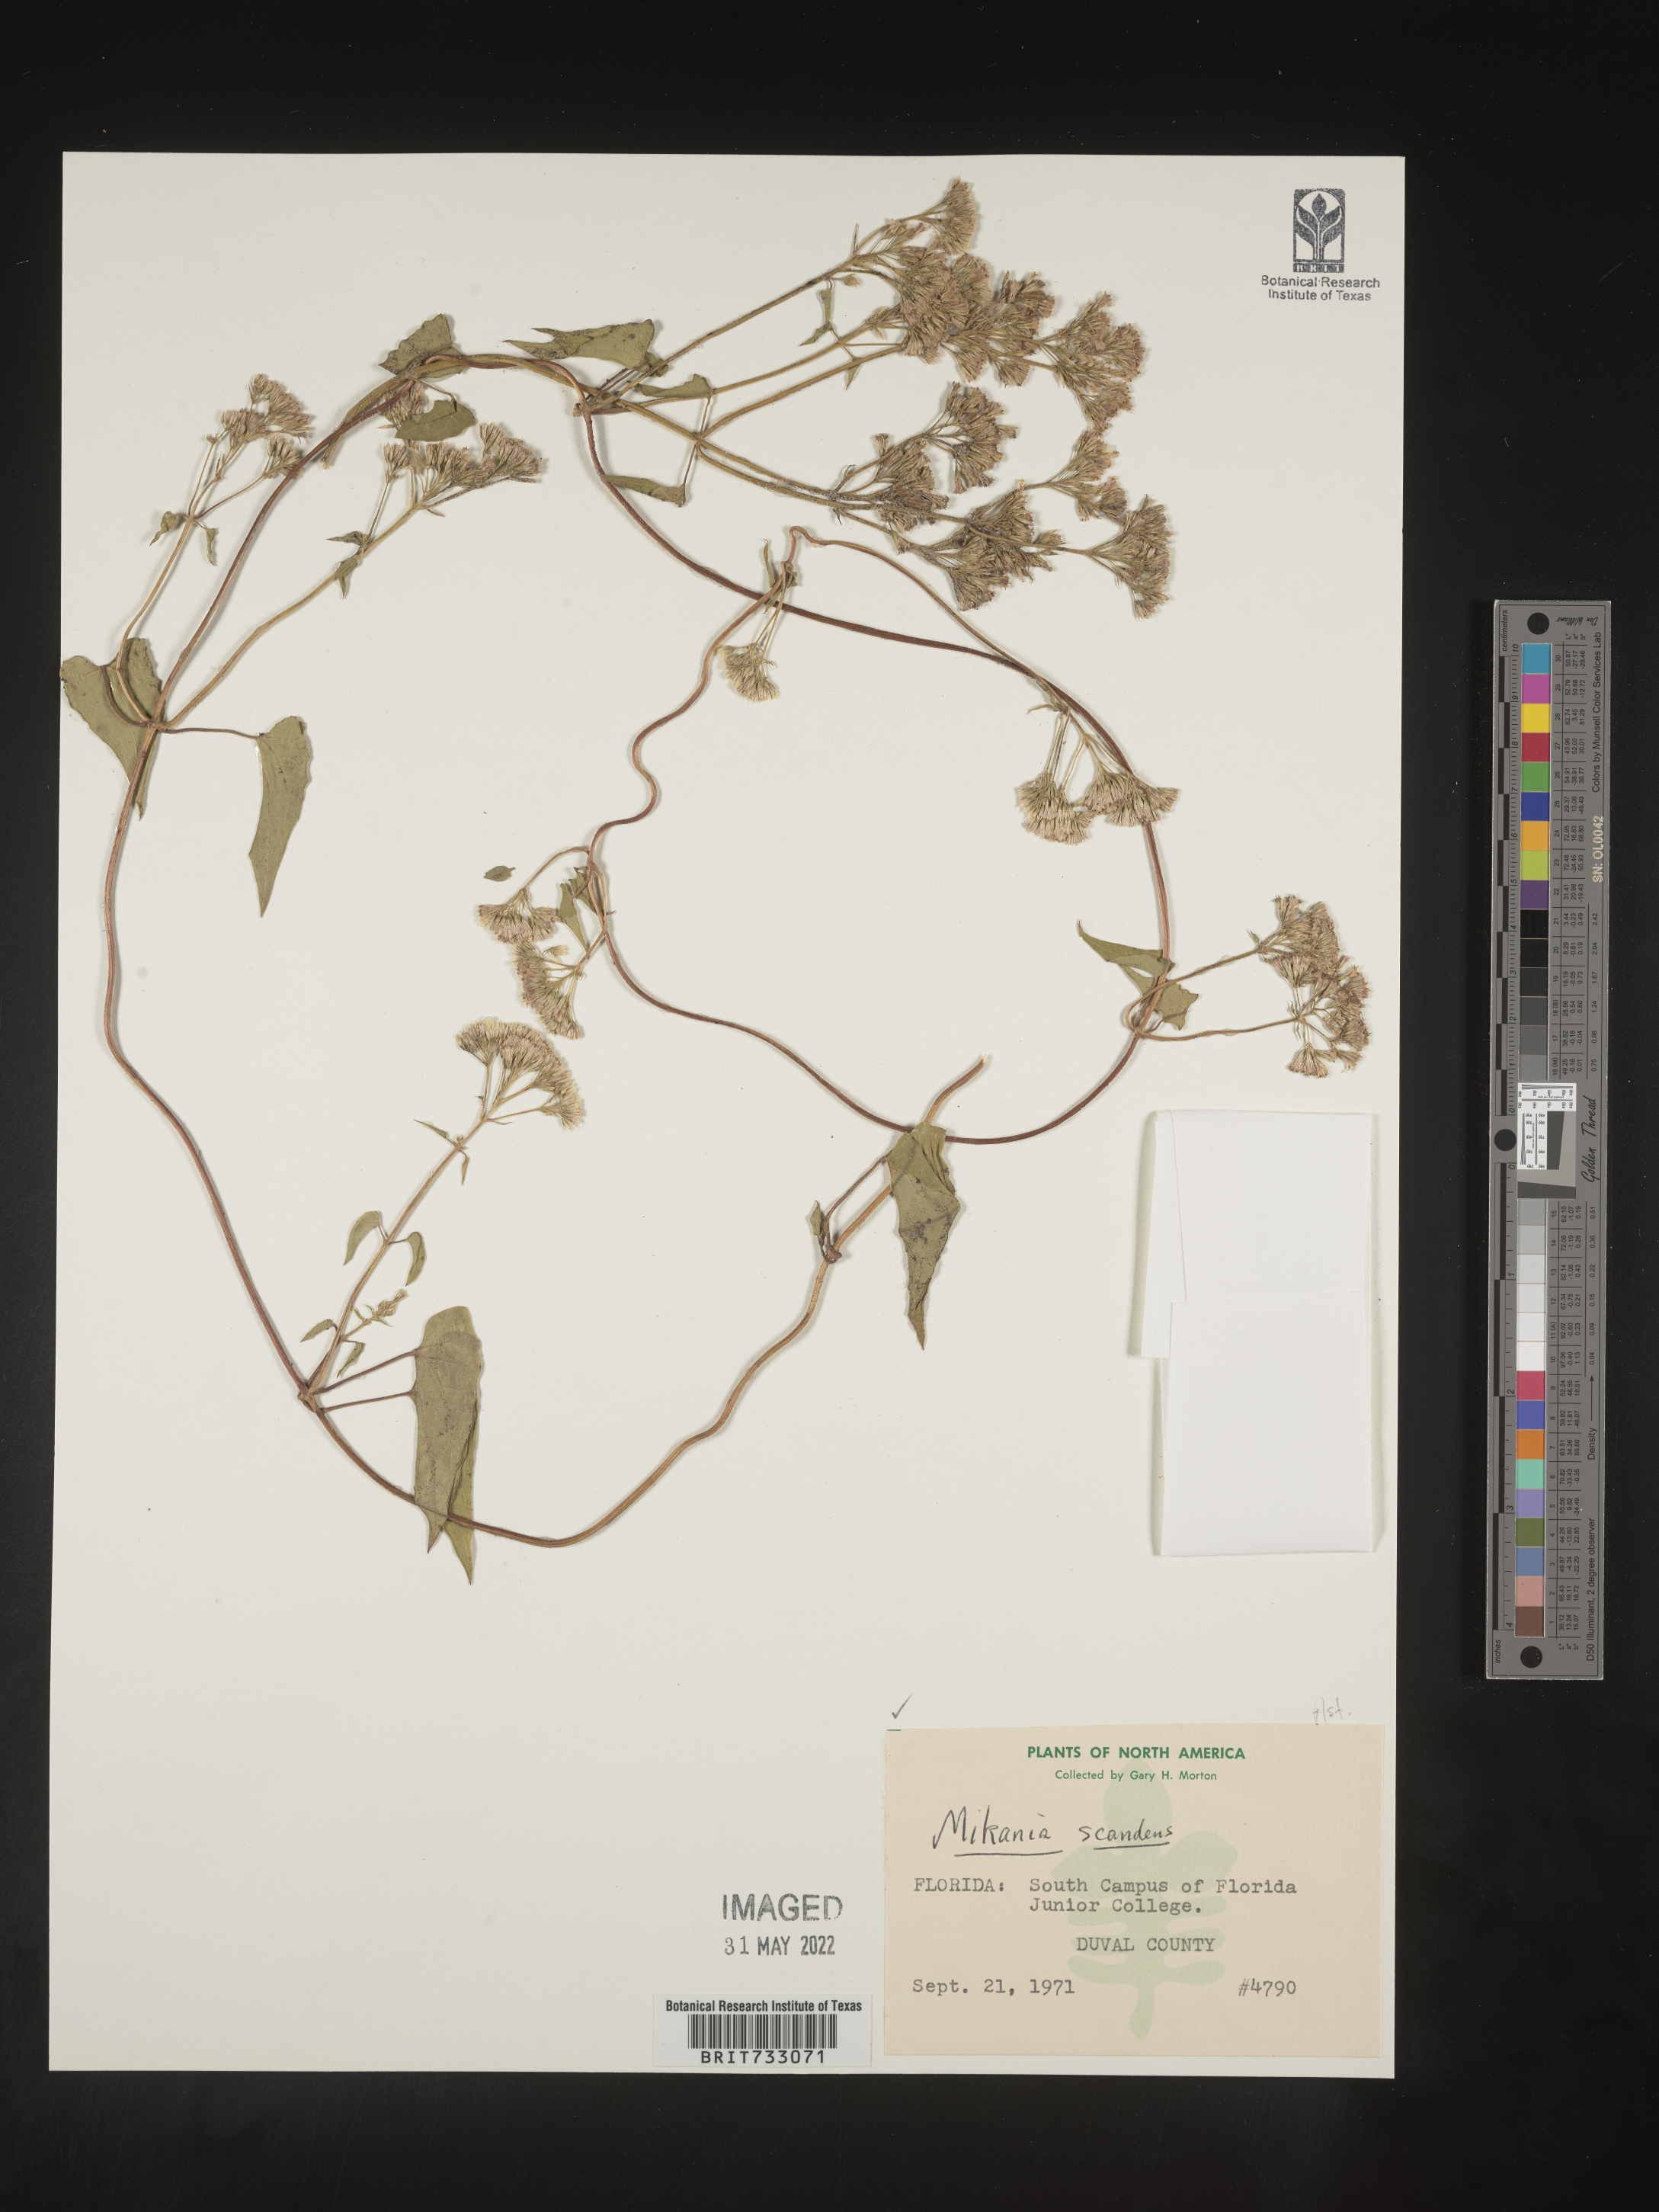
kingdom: Plantae
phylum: Tracheophyta
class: Magnoliopsida
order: Asterales
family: Asteraceae
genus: Mikania
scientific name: Mikania scandens
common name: Climbing hempvine
